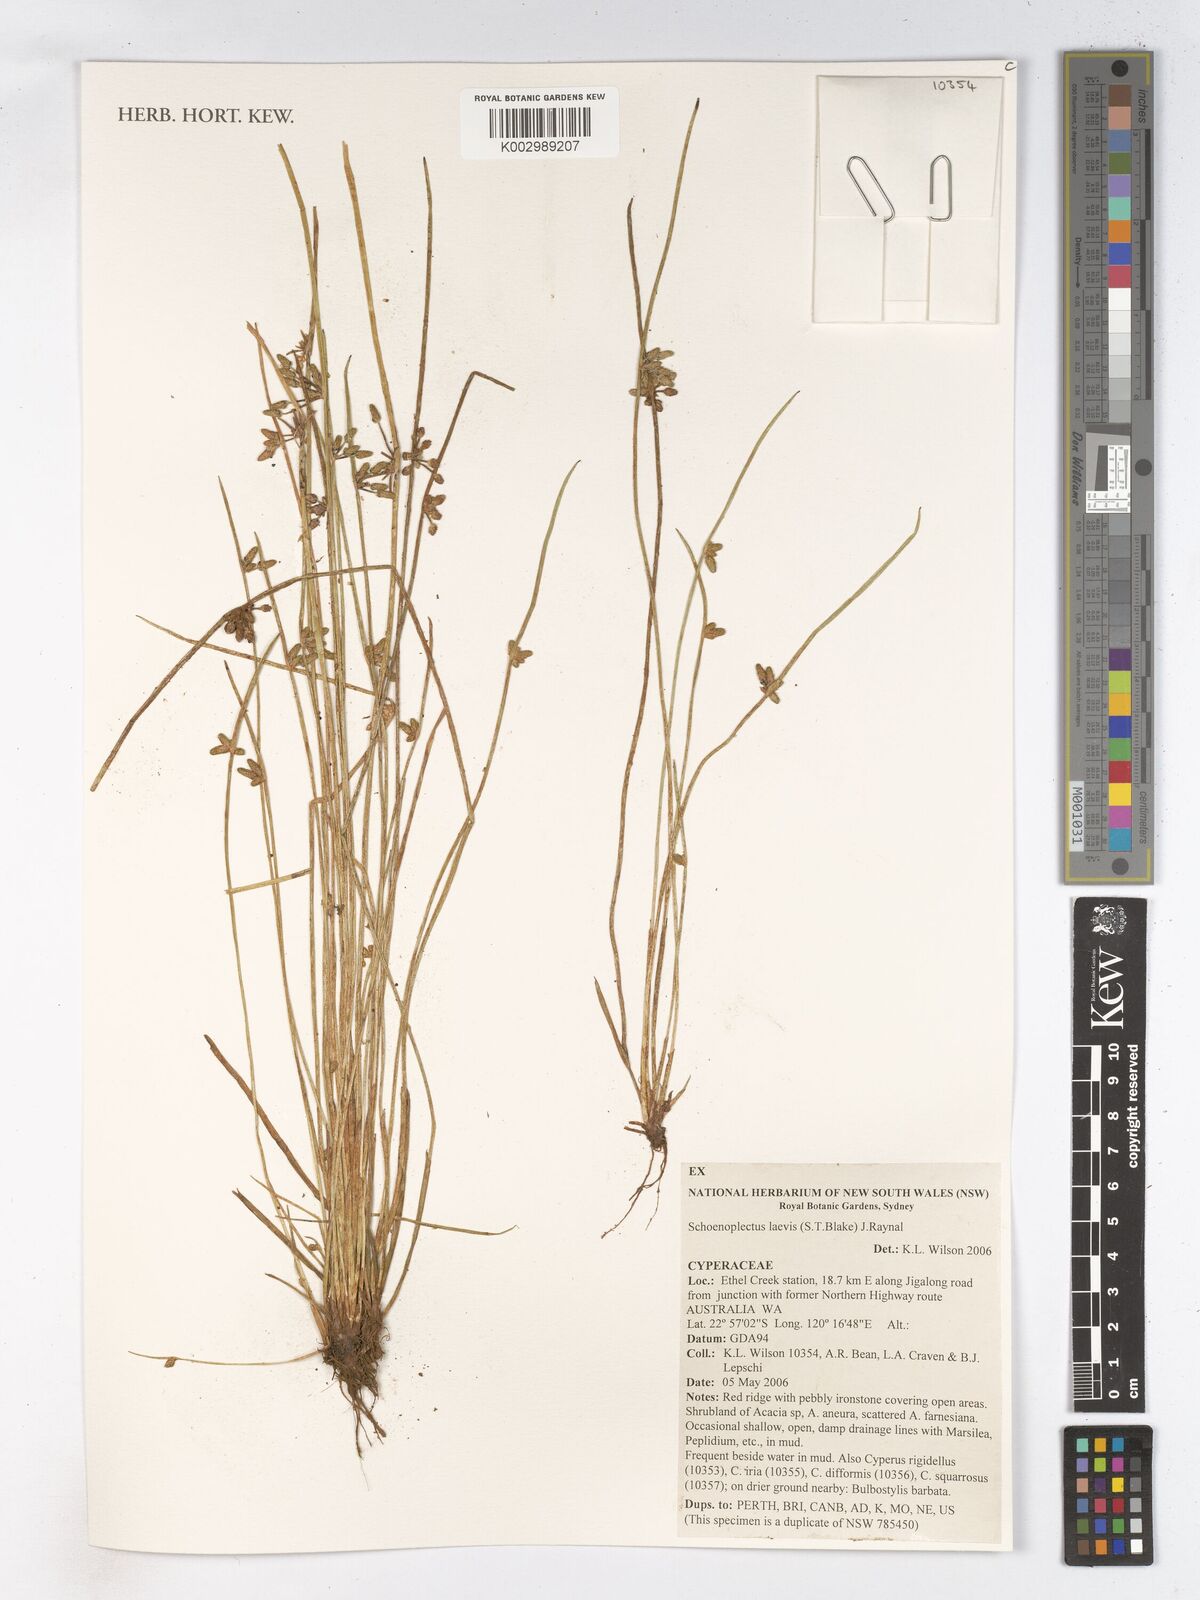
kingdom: Plantae
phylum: Tracheophyta
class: Liliopsida
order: Poales
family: Cyperaceae
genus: Schoenoplectiella
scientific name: Schoenoplectiella laevis
